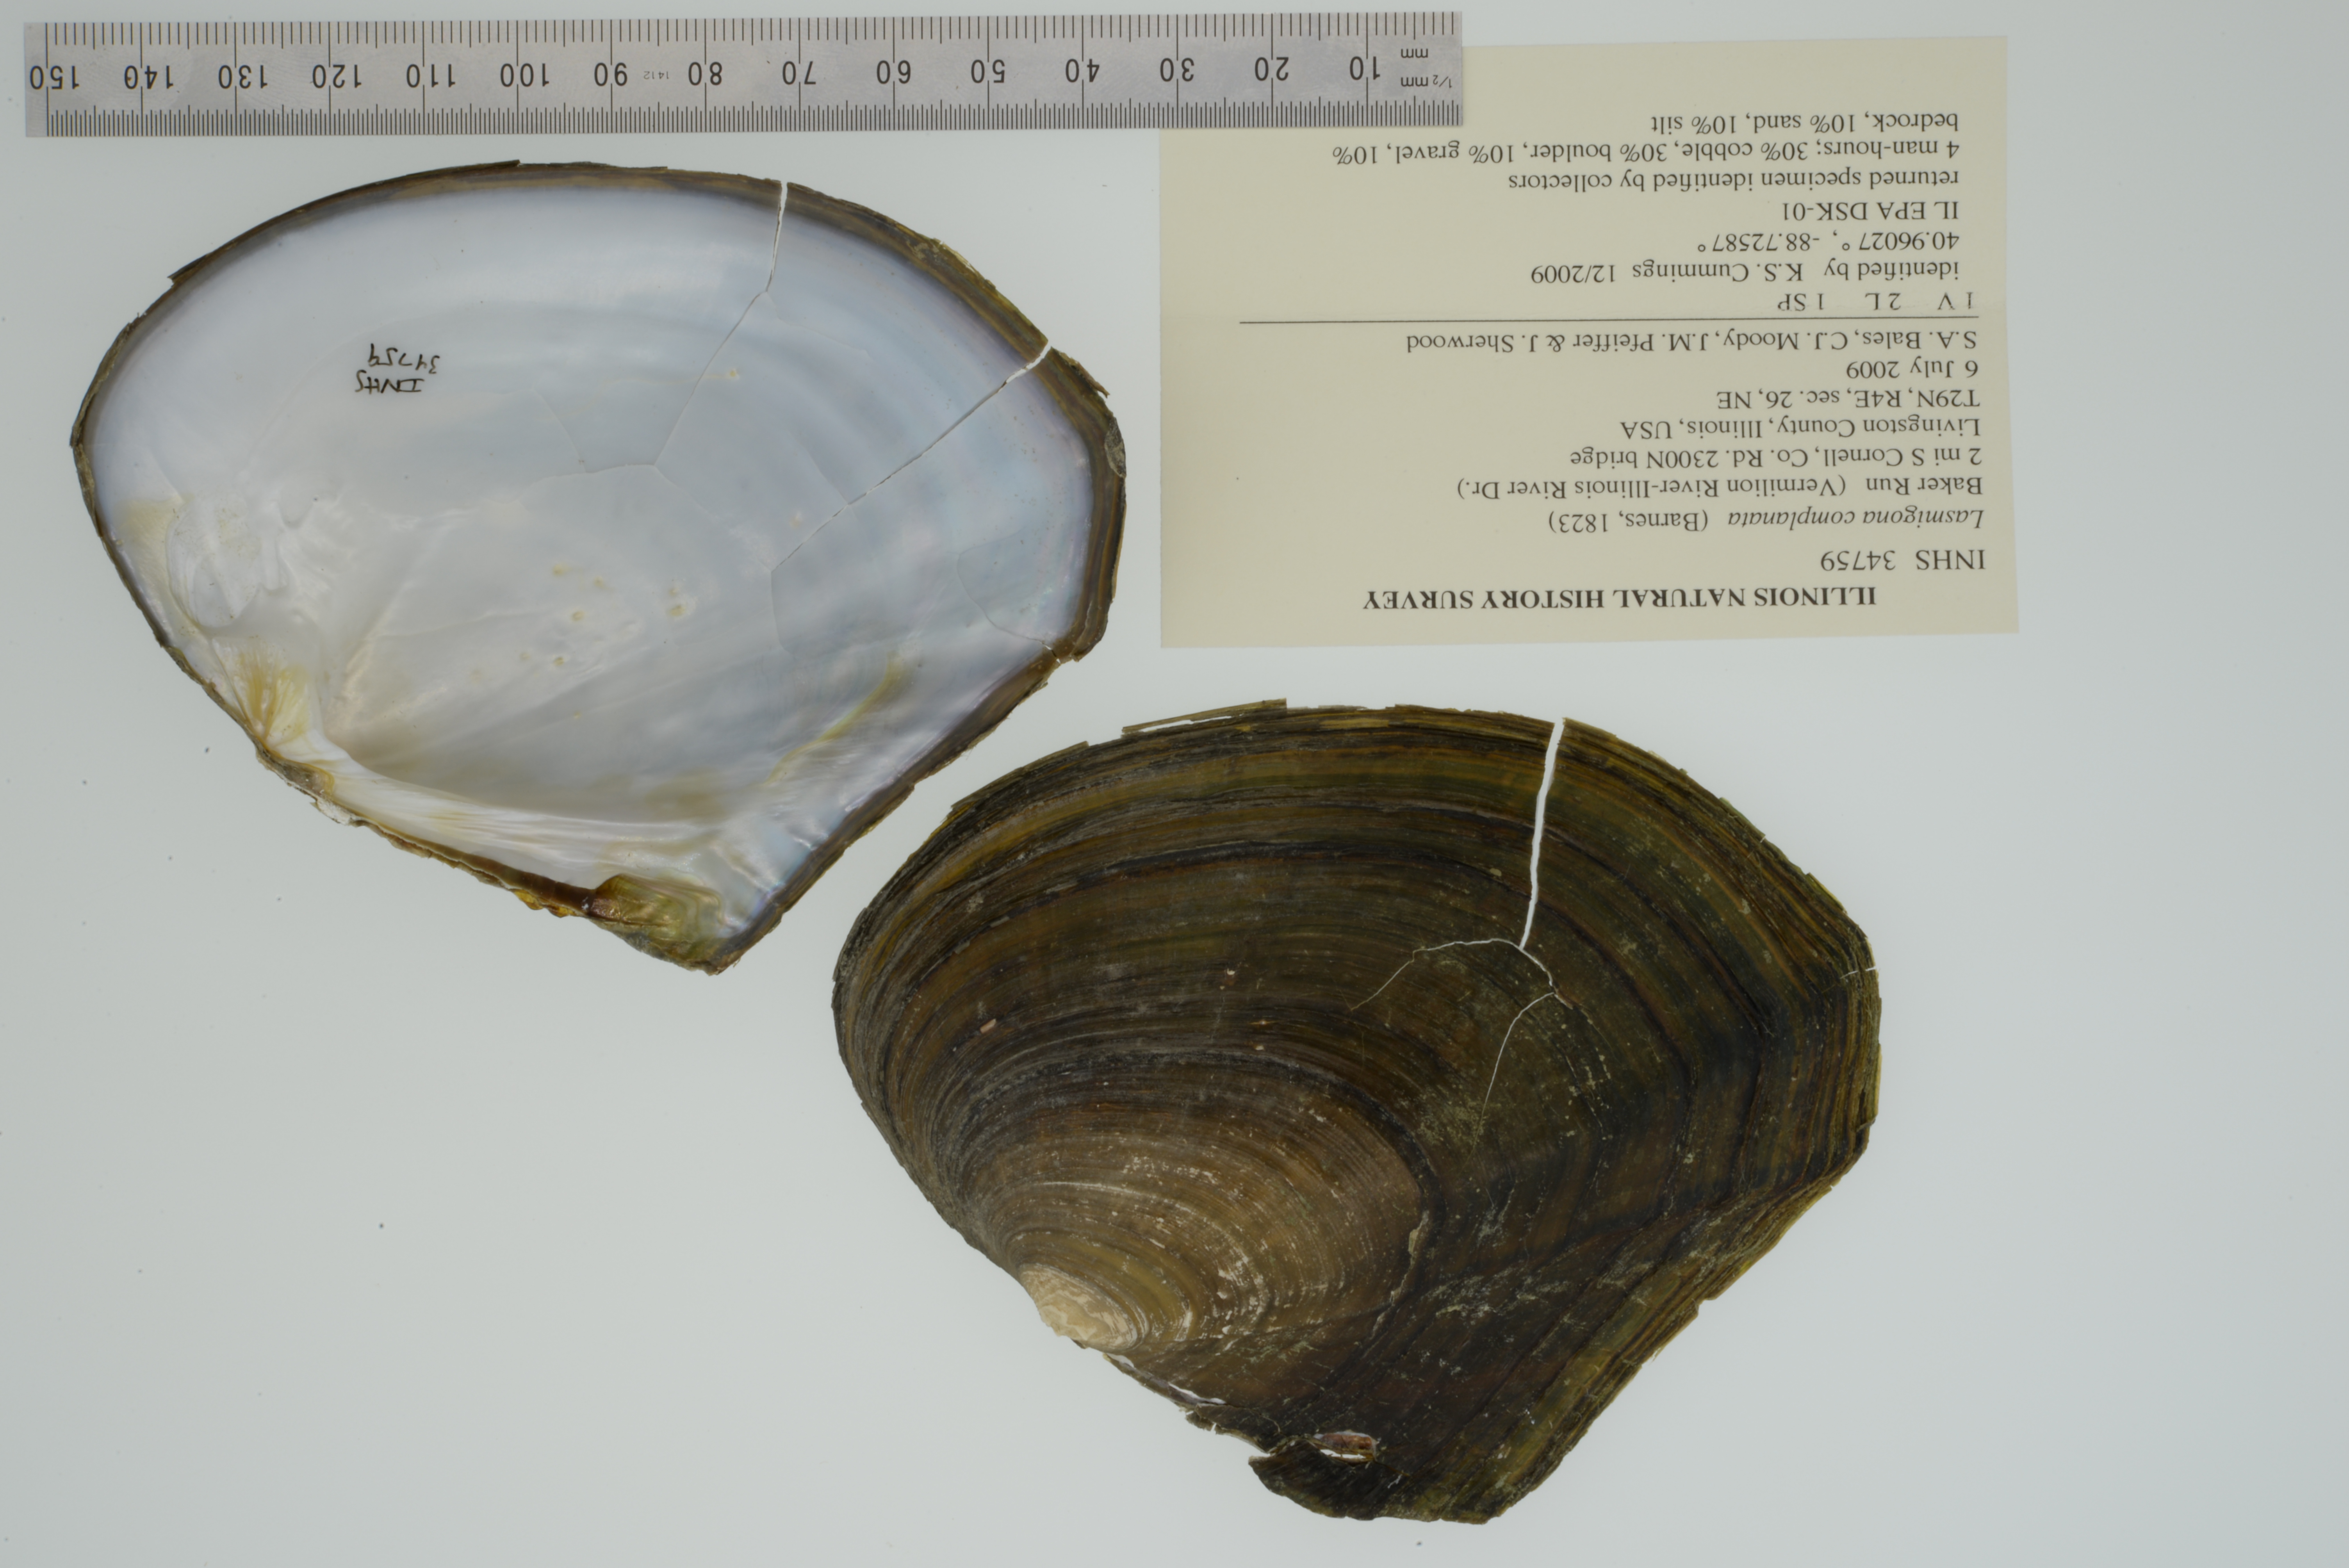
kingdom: Animalia
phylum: Mollusca
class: Bivalvia
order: Unionida
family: Unionidae
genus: Lasmigona
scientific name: Lasmigona complanata
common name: White heelsplitter
